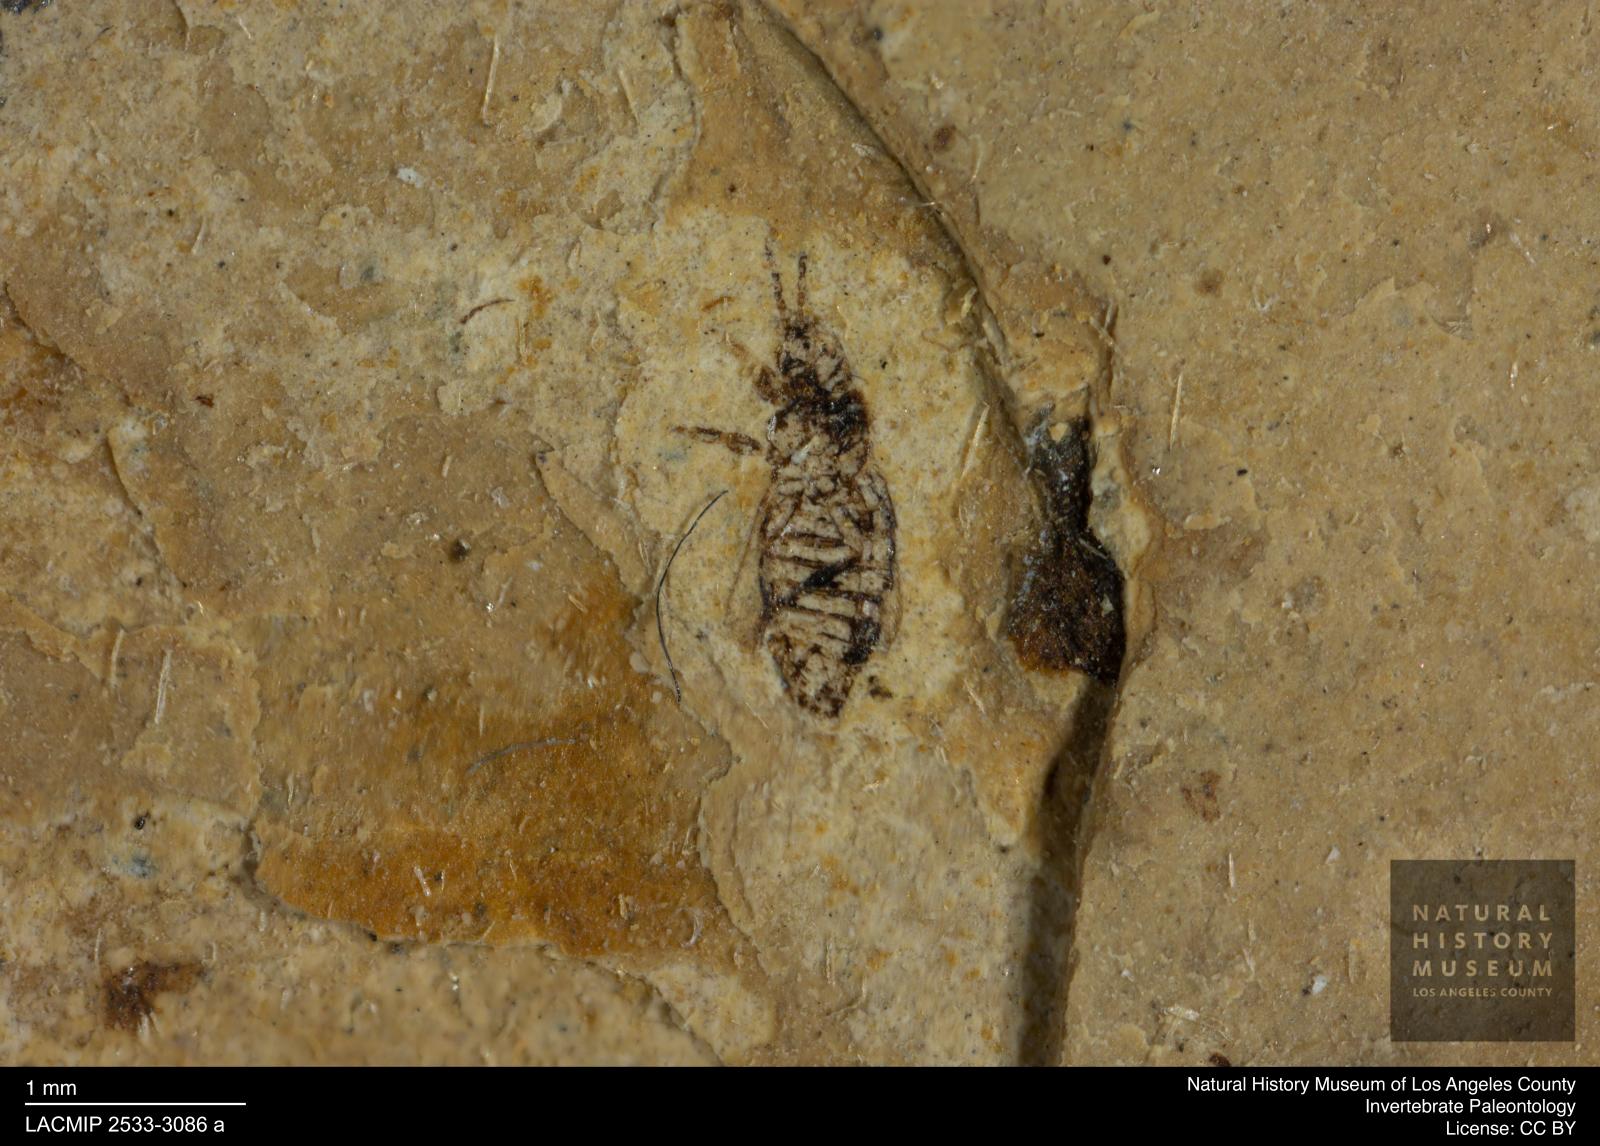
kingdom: Animalia
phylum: Arthropoda
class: Insecta
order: Thysanoptera
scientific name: Thysanoptera
